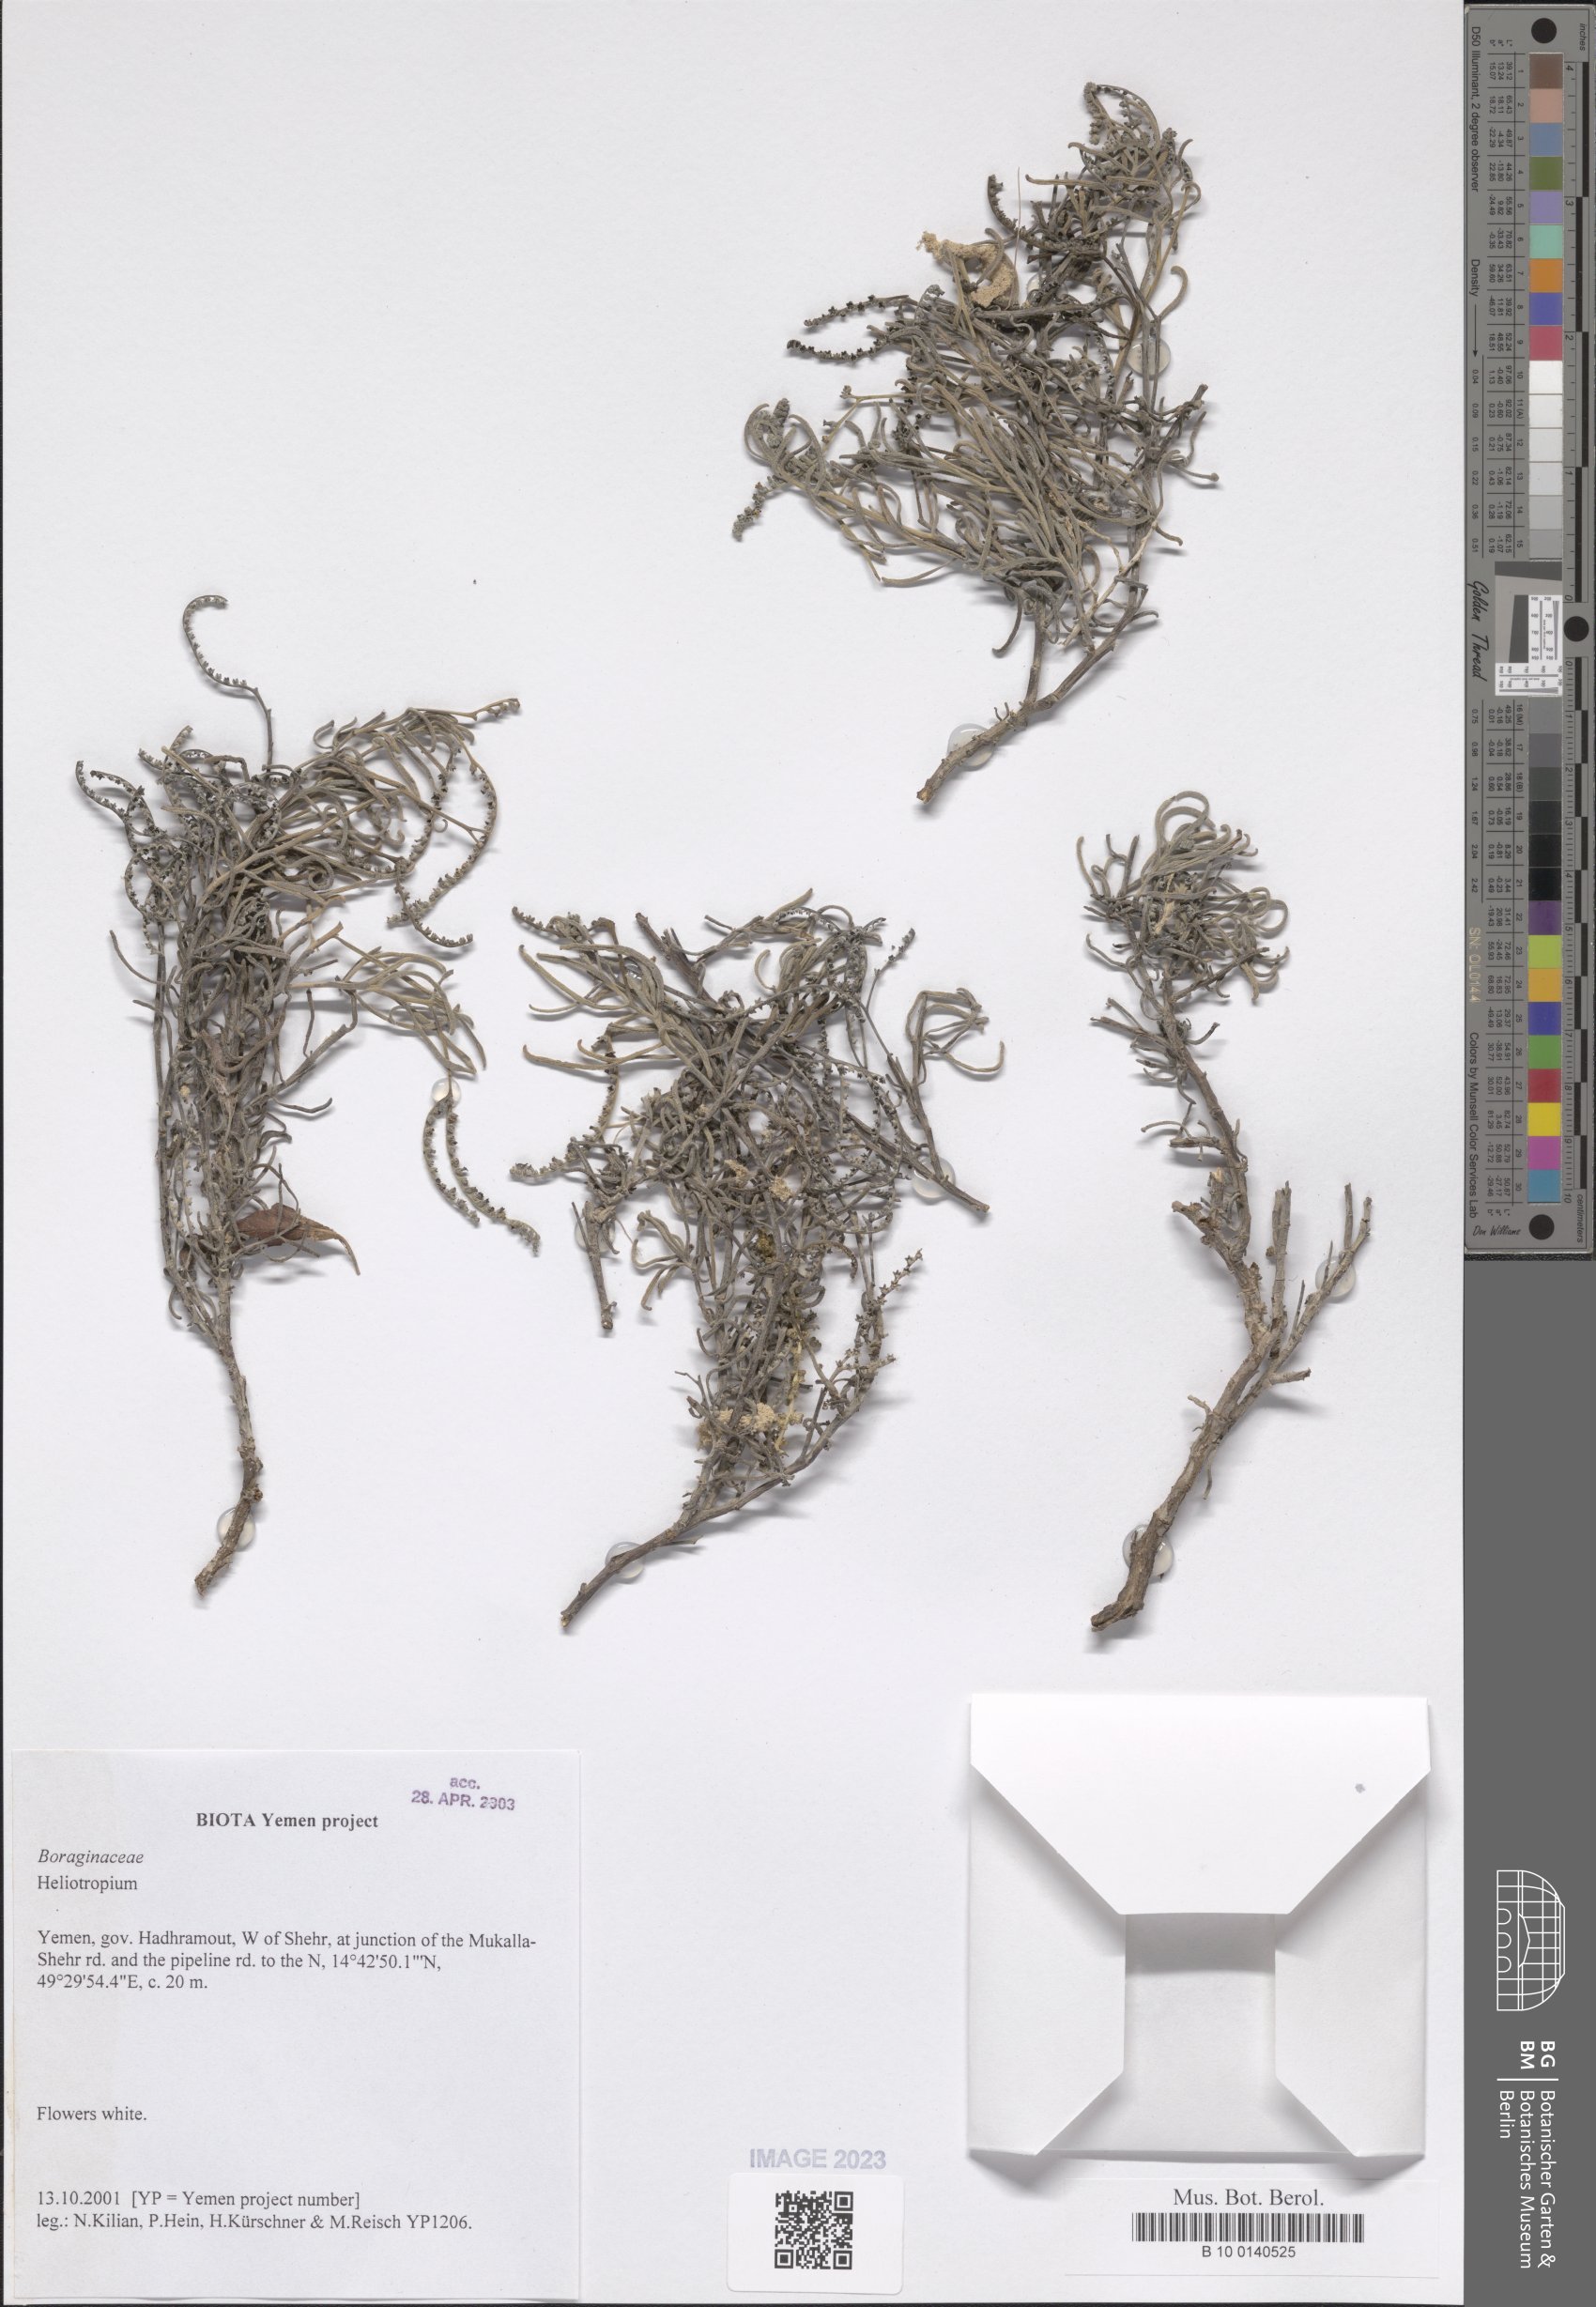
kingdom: Plantae
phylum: Tracheophyta
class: Magnoliopsida
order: Boraginales
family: Heliotropiaceae
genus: Heliotropium
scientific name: Heliotropium
